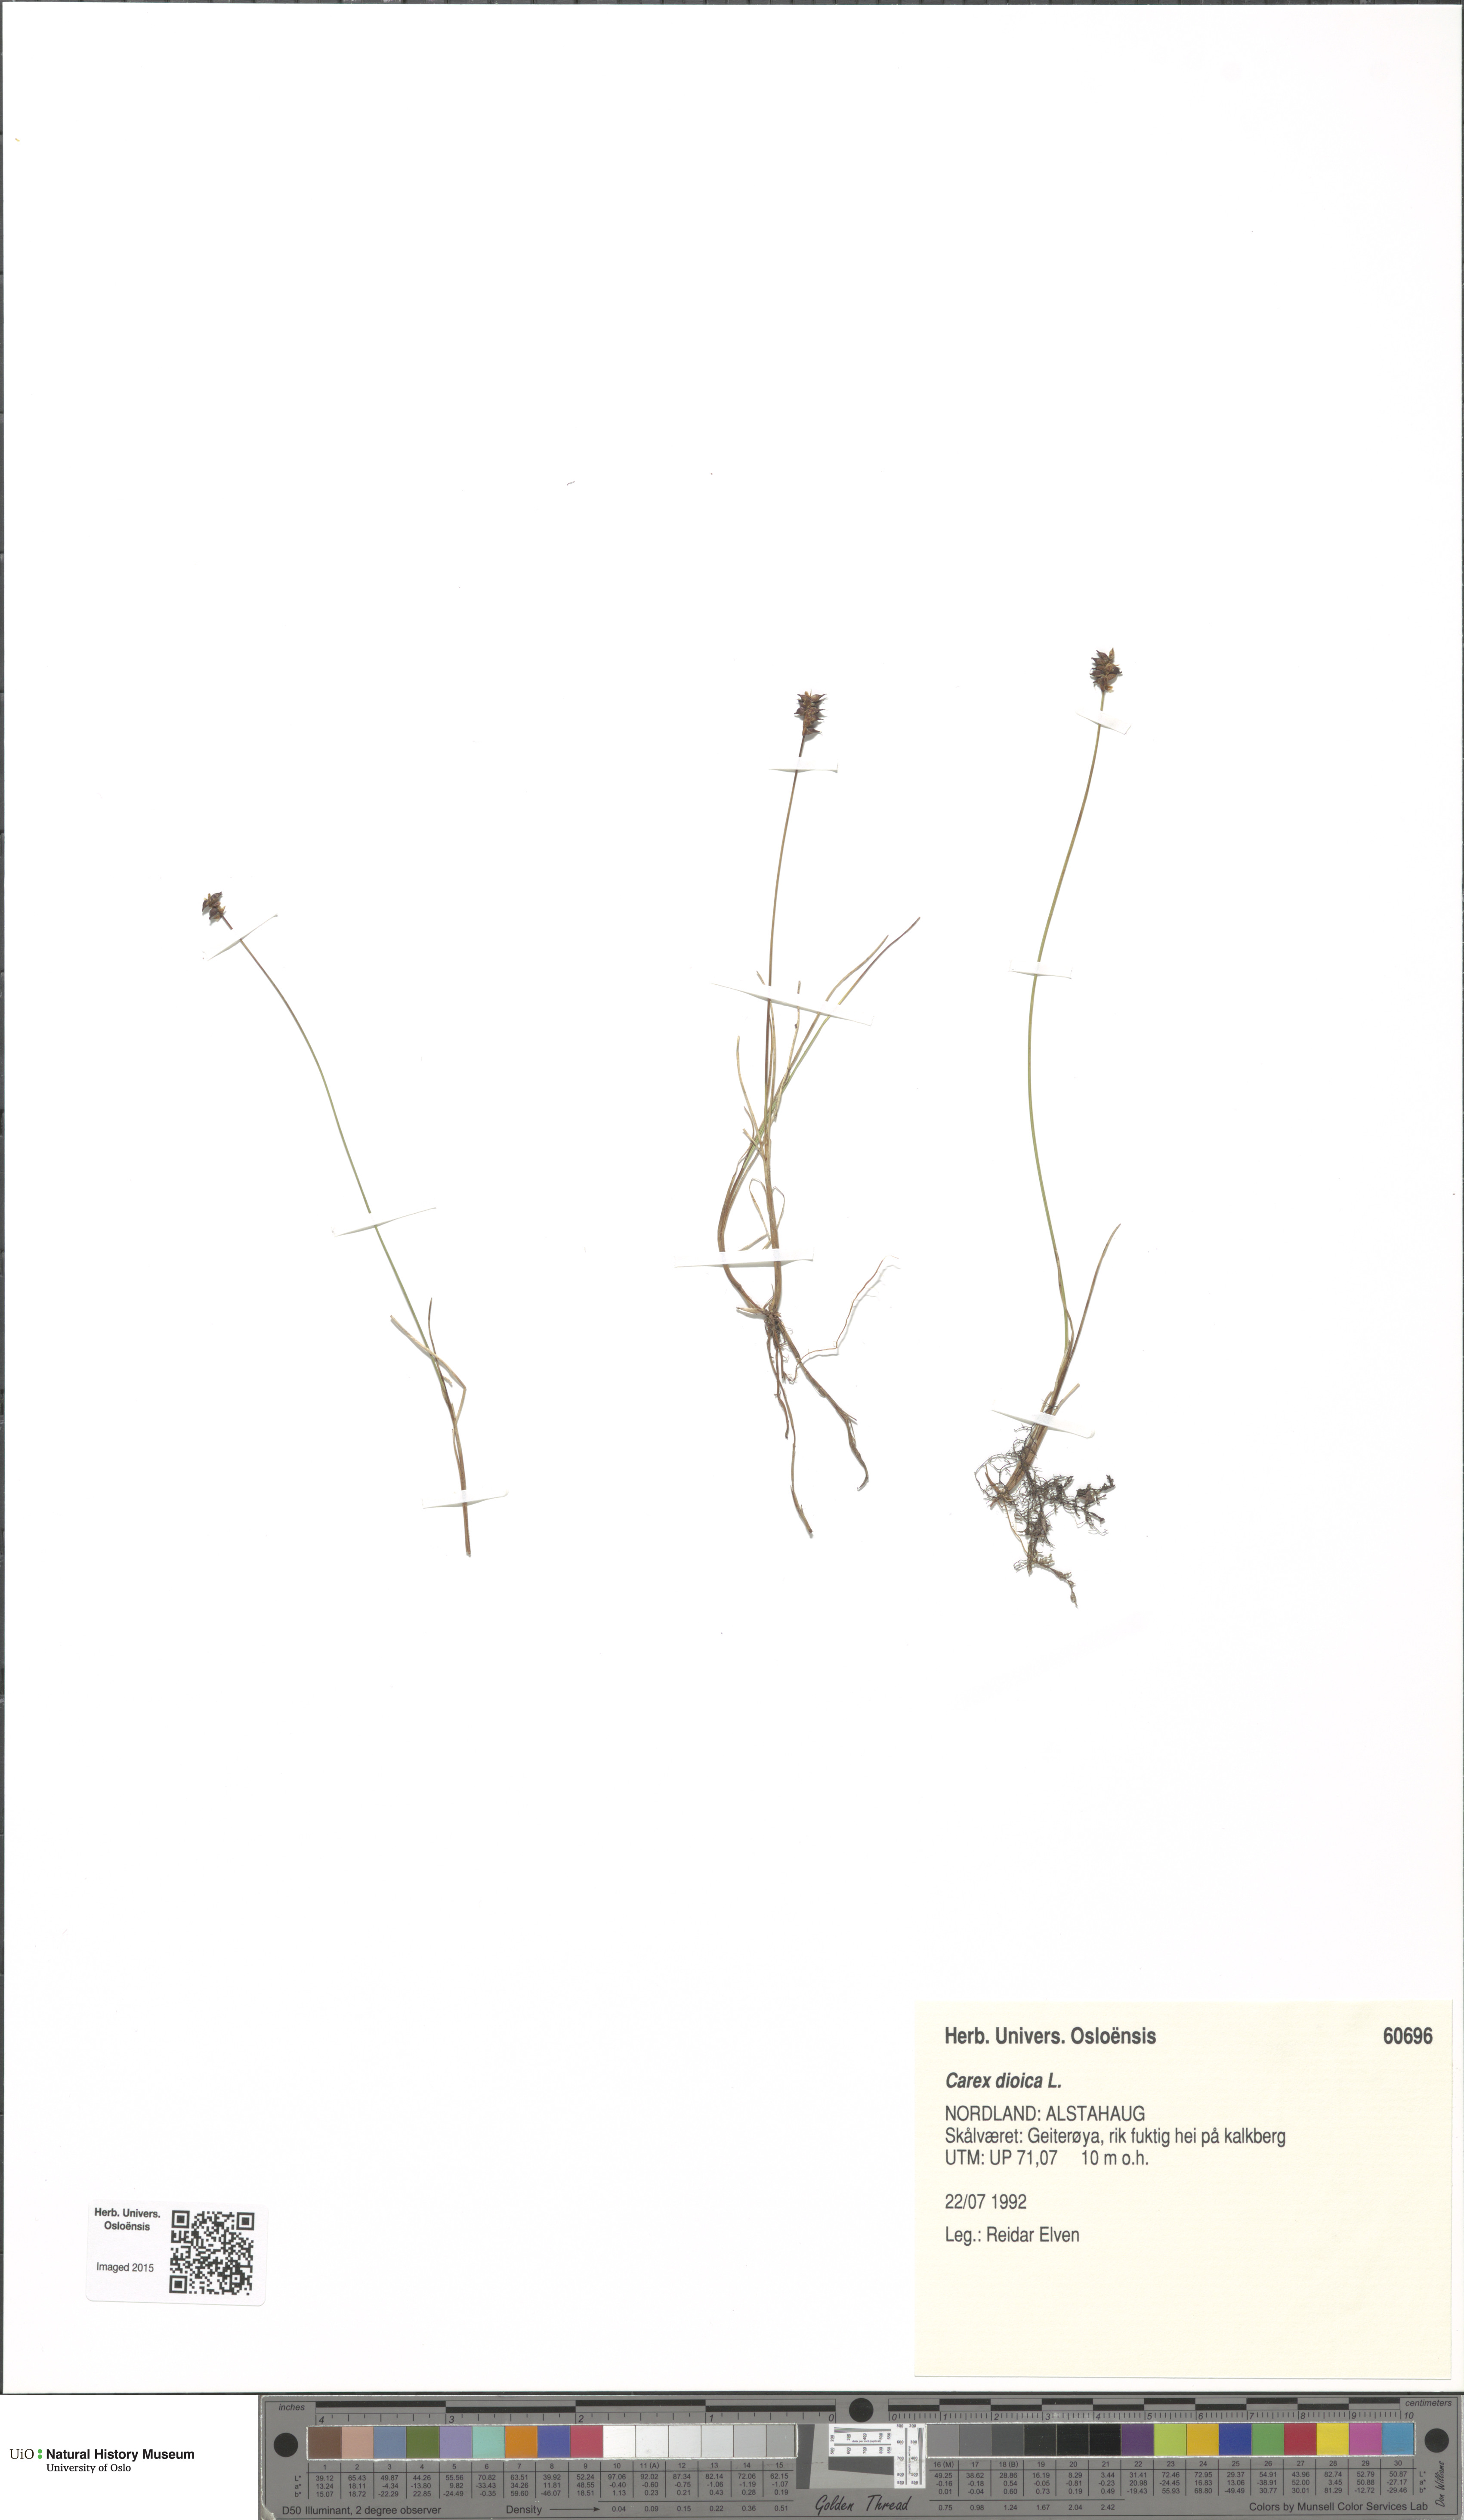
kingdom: Plantae
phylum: Tracheophyta
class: Liliopsida
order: Poales
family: Cyperaceae
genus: Carex
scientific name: Carex dioica
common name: Dioecious sedge
